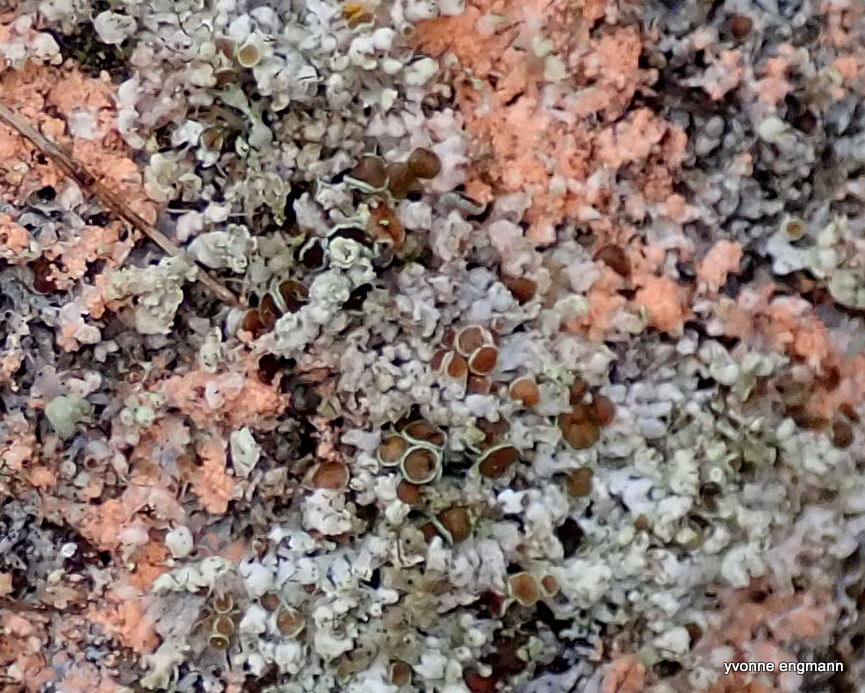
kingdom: Fungi
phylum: Ascomycota
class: Lecanoromycetes
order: Caliciales
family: Physciaceae
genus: Physcia
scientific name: Physcia tenella
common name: spæd rosetlav
